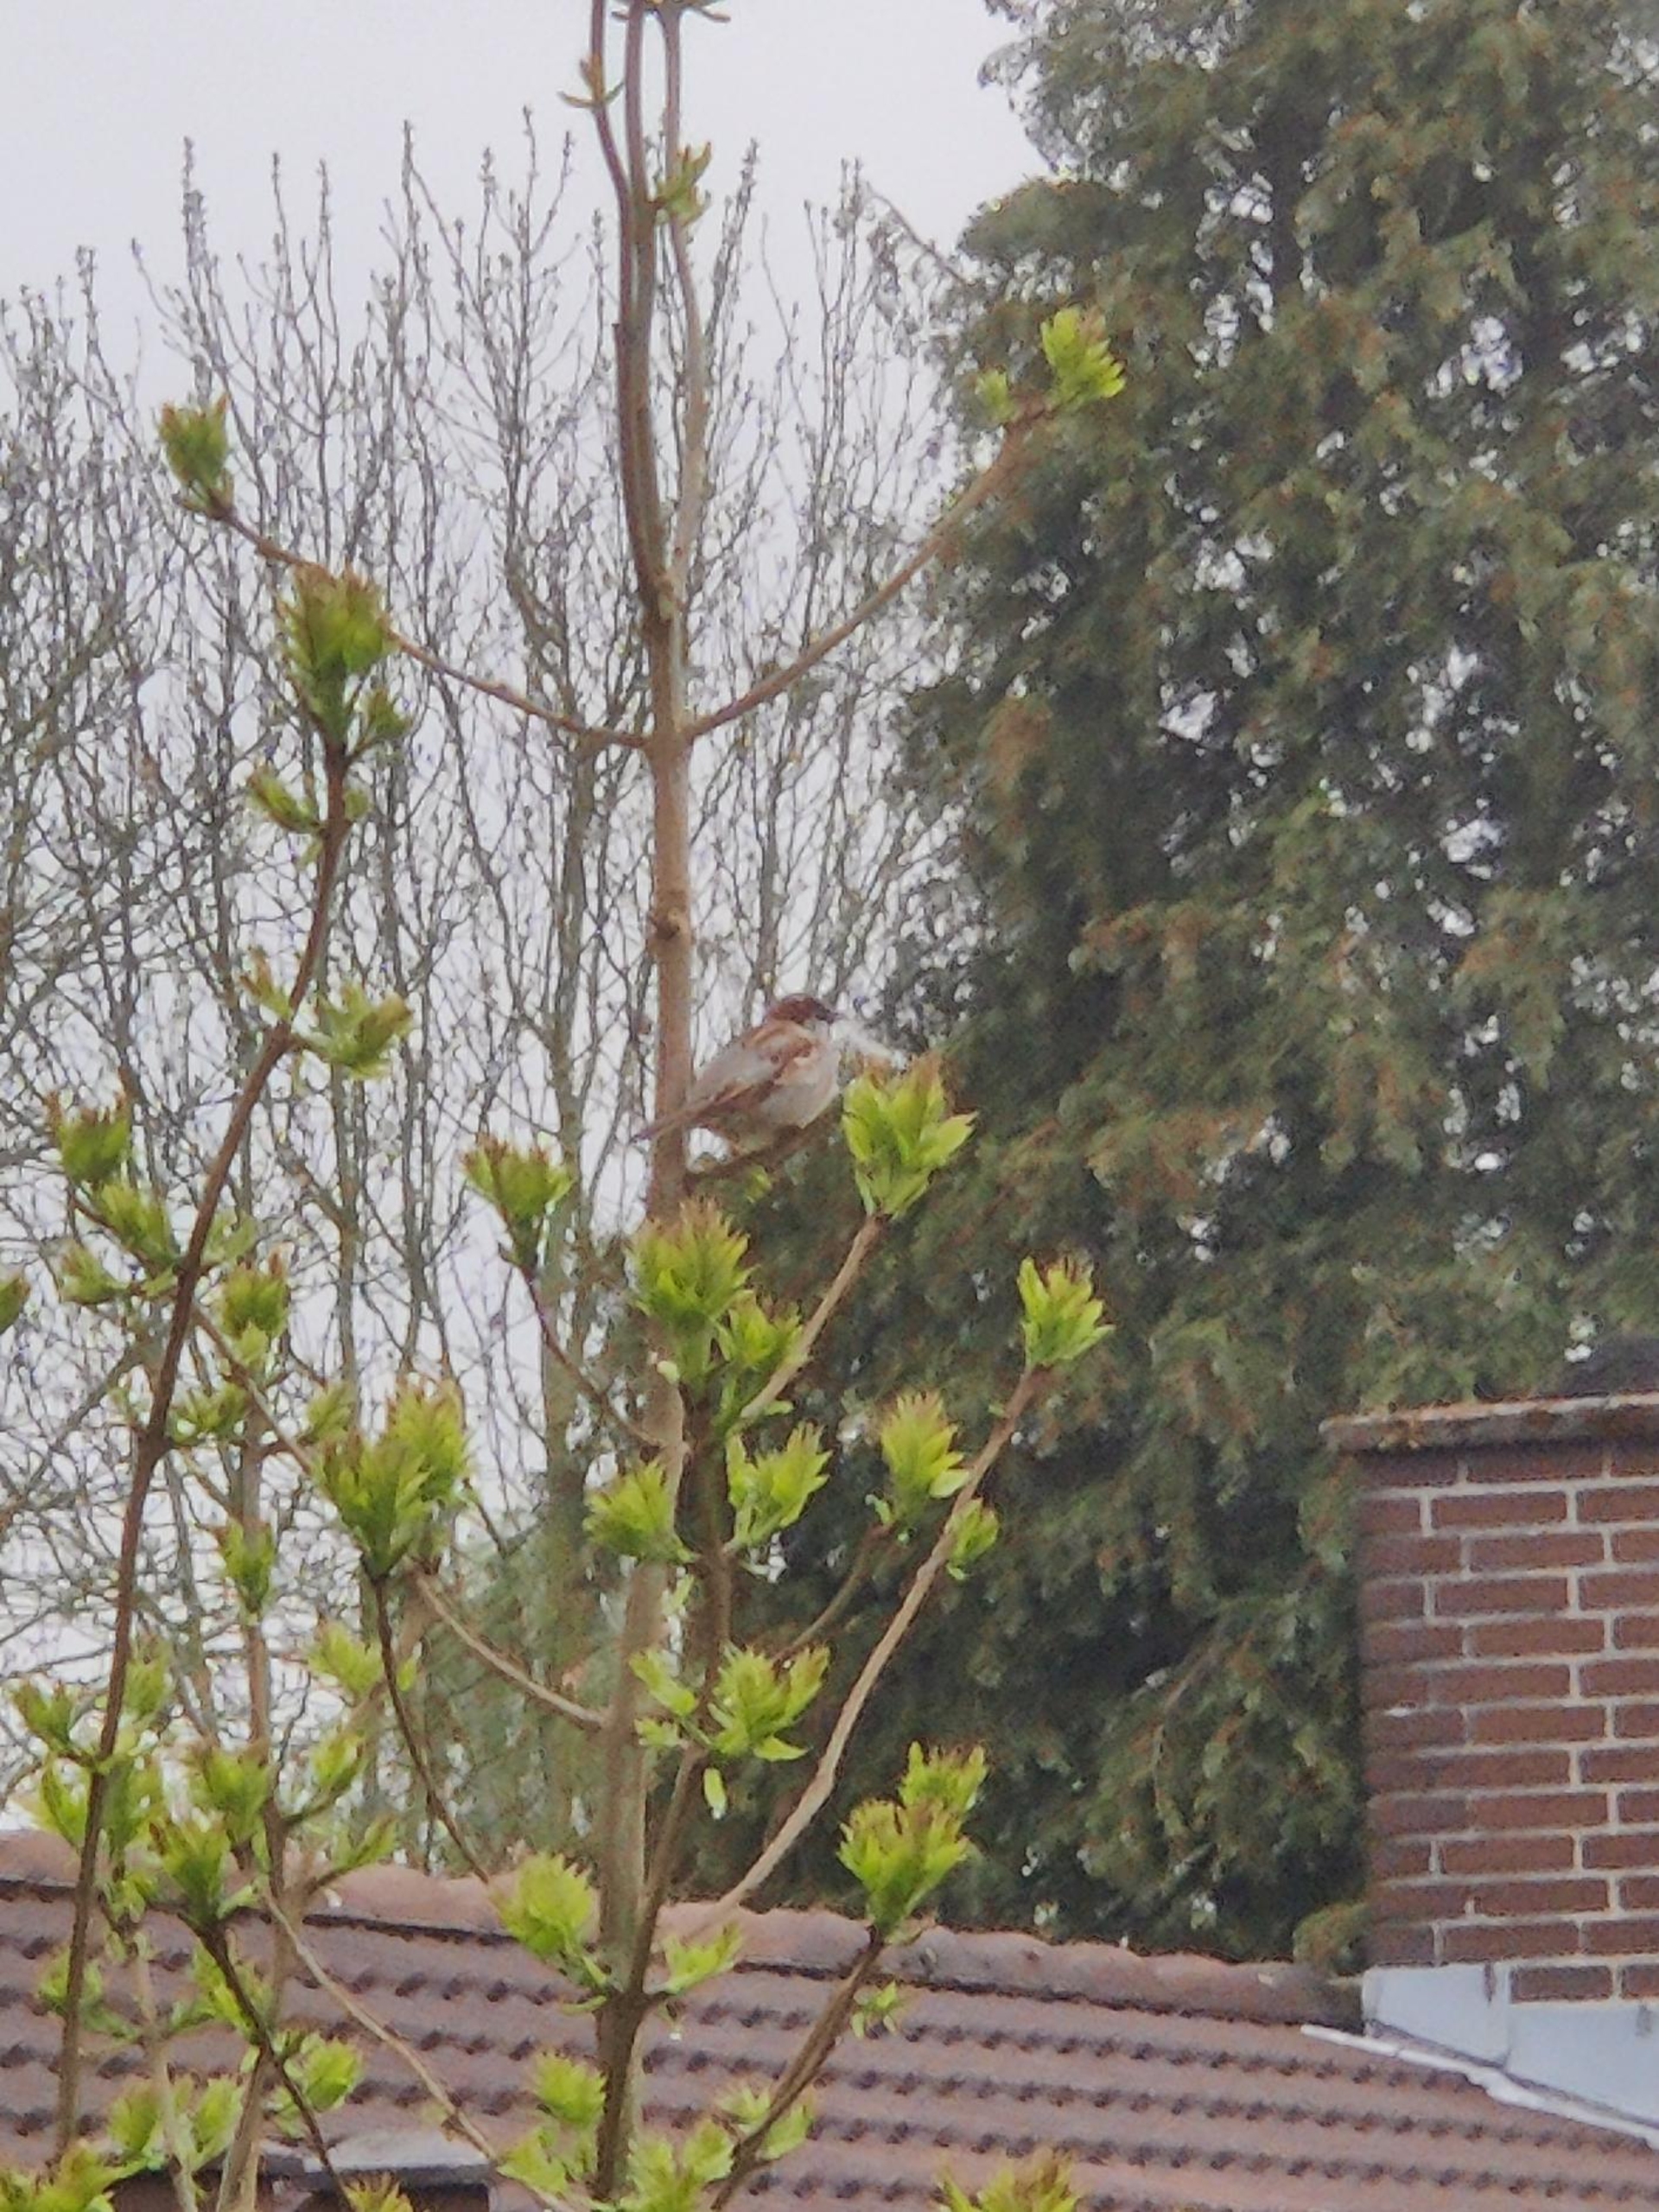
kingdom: Animalia
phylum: Chordata
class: Aves
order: Passeriformes
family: Passeridae
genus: Passer
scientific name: Passer domesticus
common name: Gråspurv
